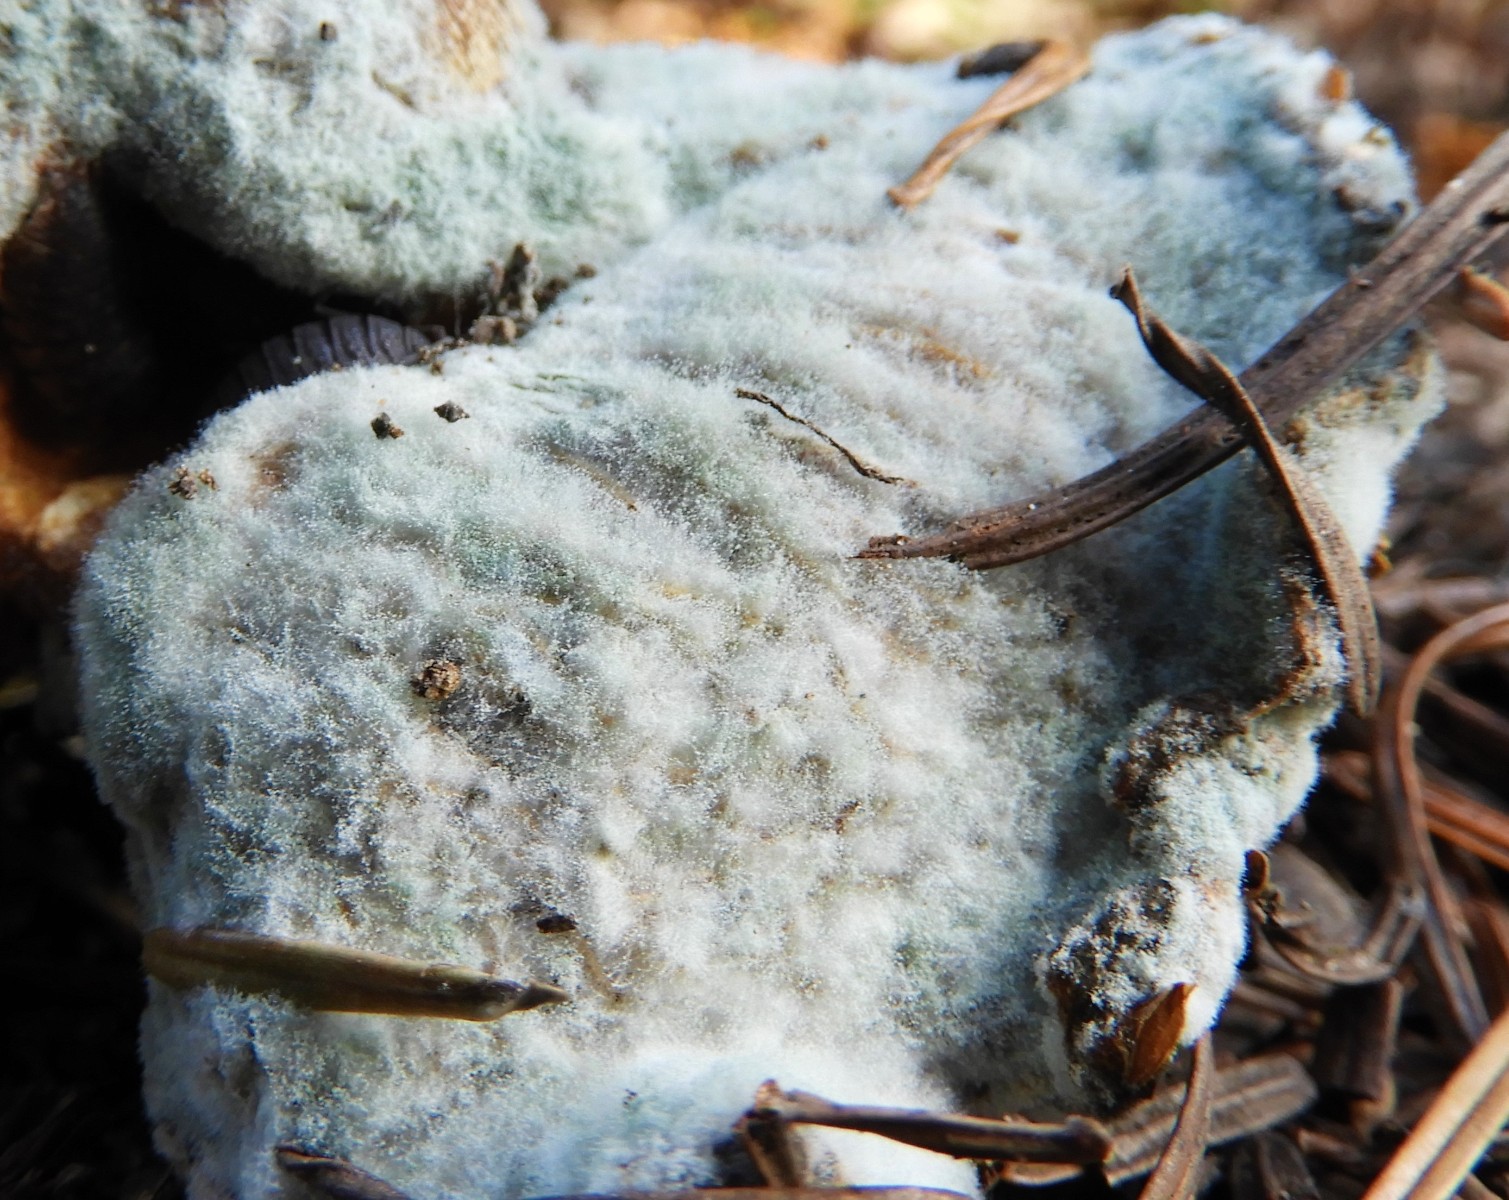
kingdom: Fungi
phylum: Ascomycota
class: Eurotiomycetes
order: Eurotiales
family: Aspergillaceae
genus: Penicillium
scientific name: Penicillium
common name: penselskimmel
